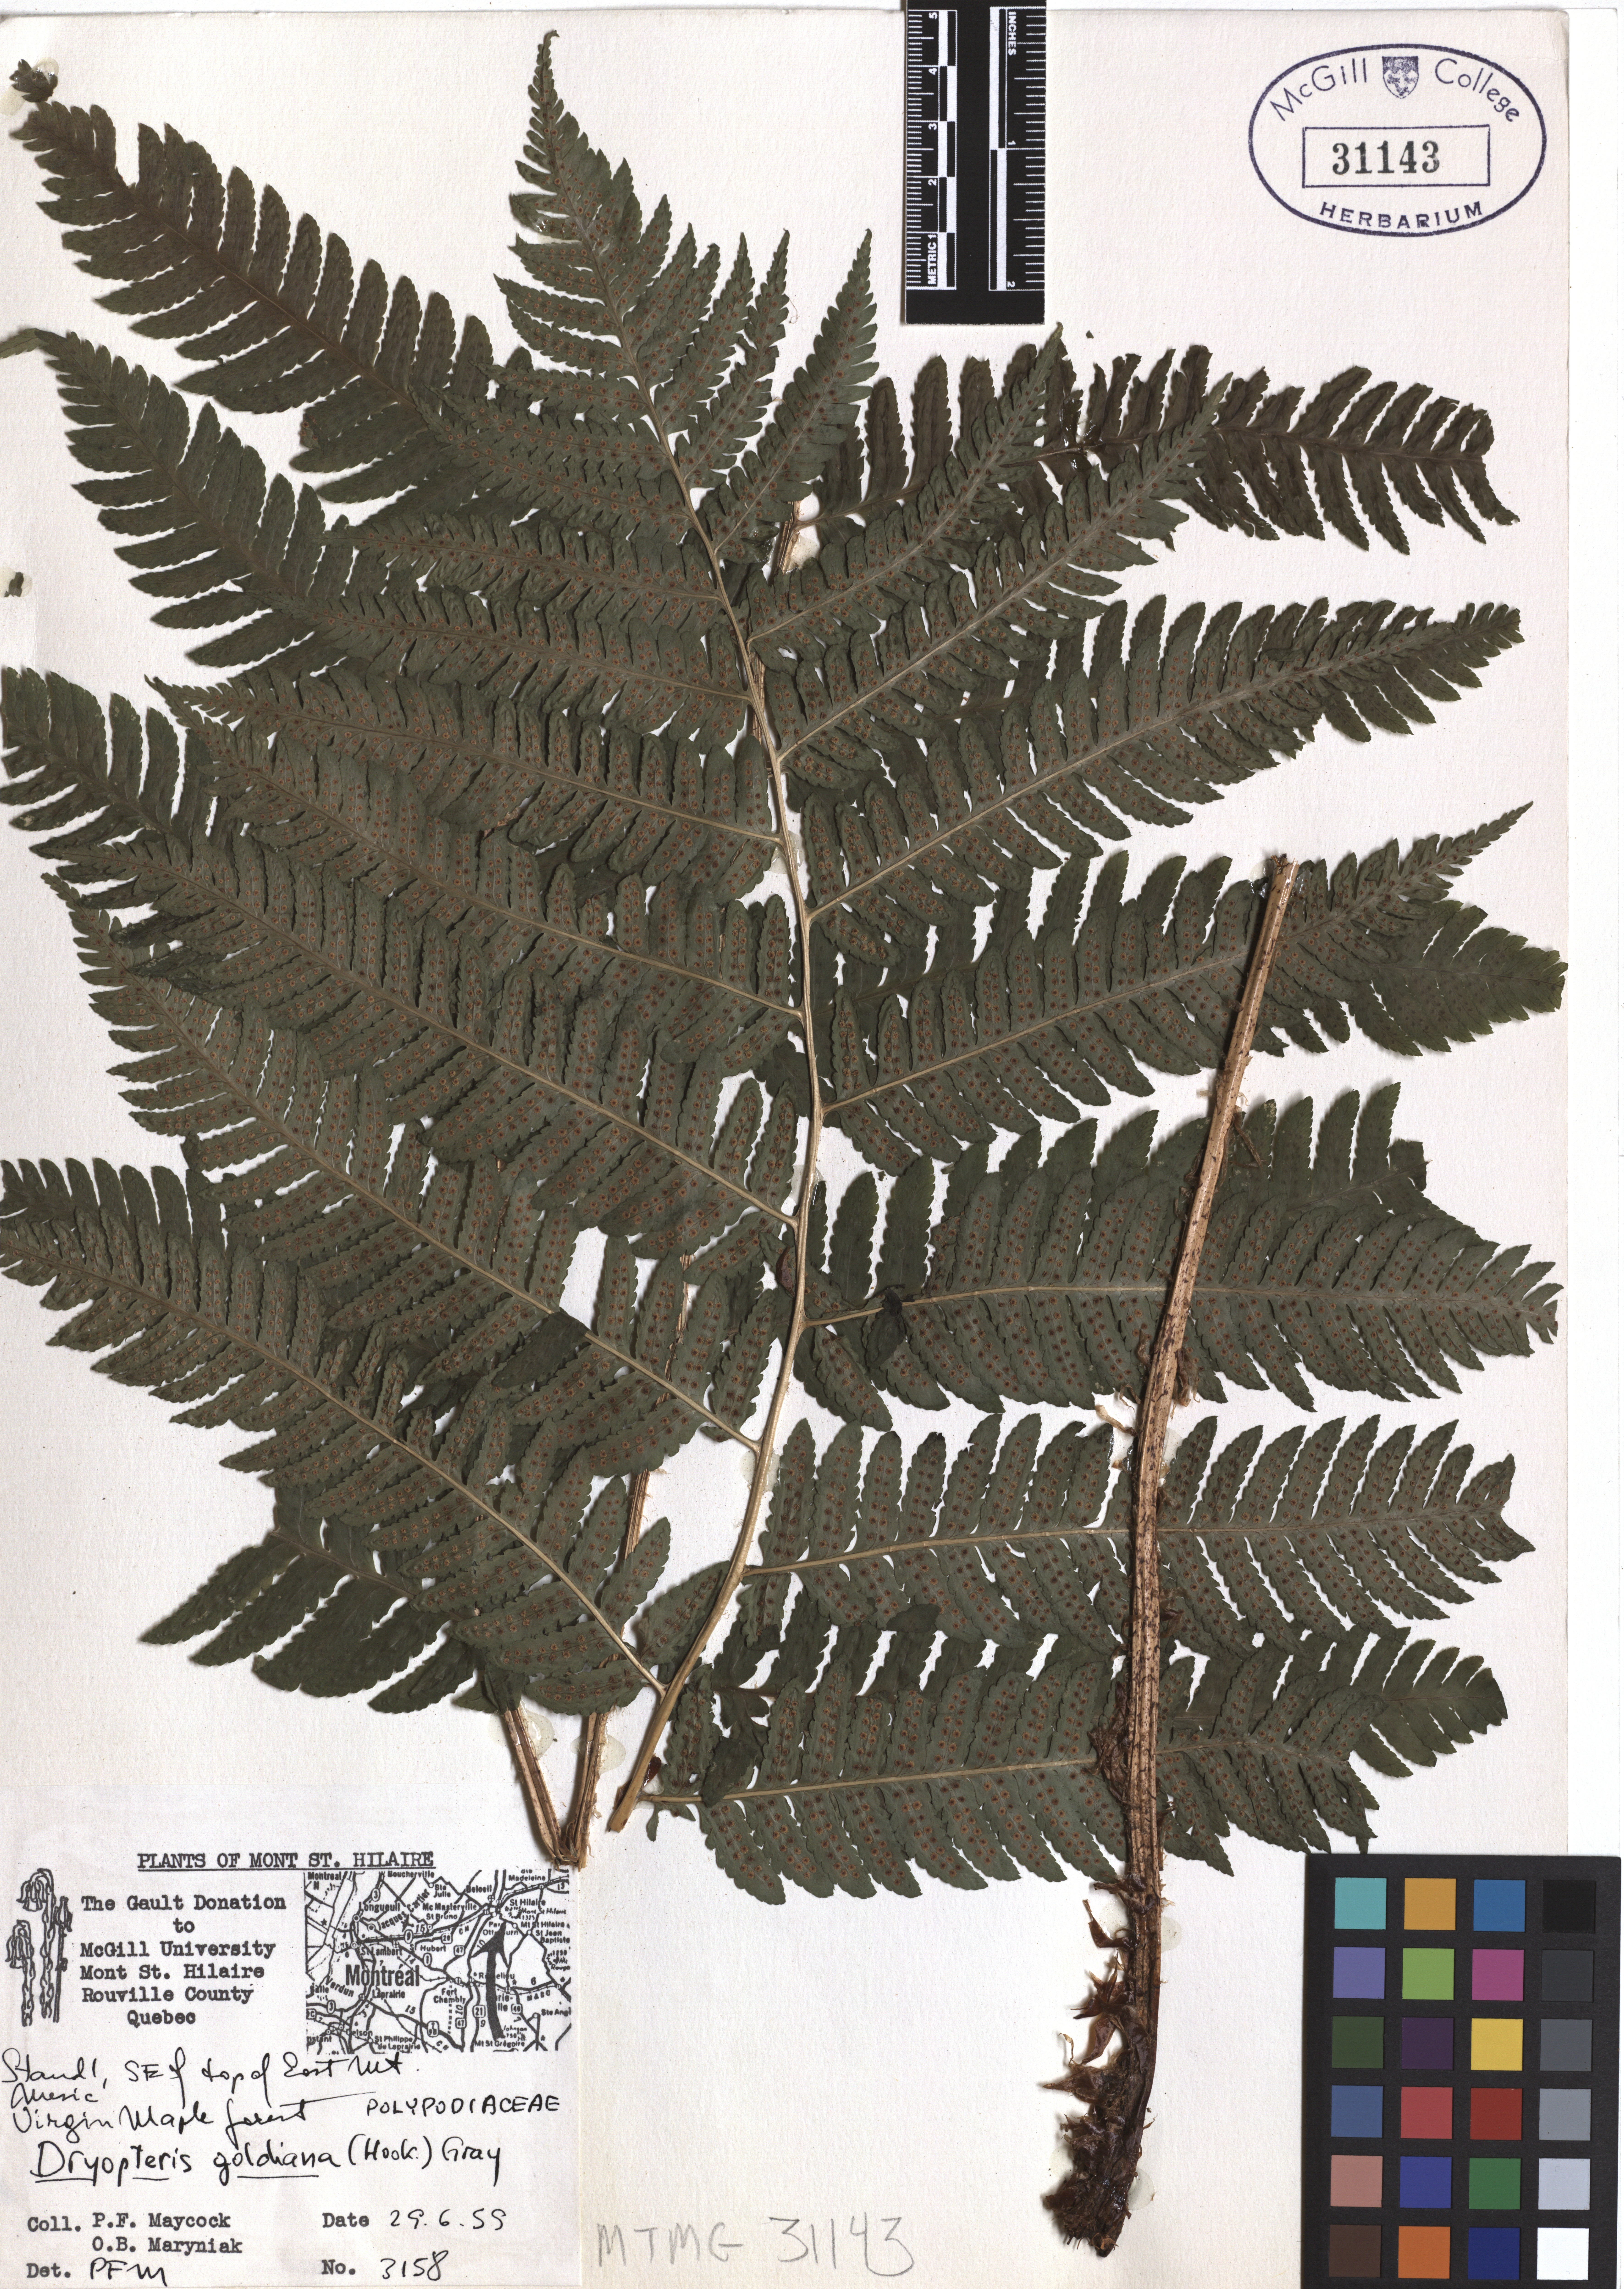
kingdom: Plantae
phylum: Tracheophyta
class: Polypodiopsida
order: Polypodiales
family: Dryopteridaceae
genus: Dryopteris
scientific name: Dryopteris goeldiana
